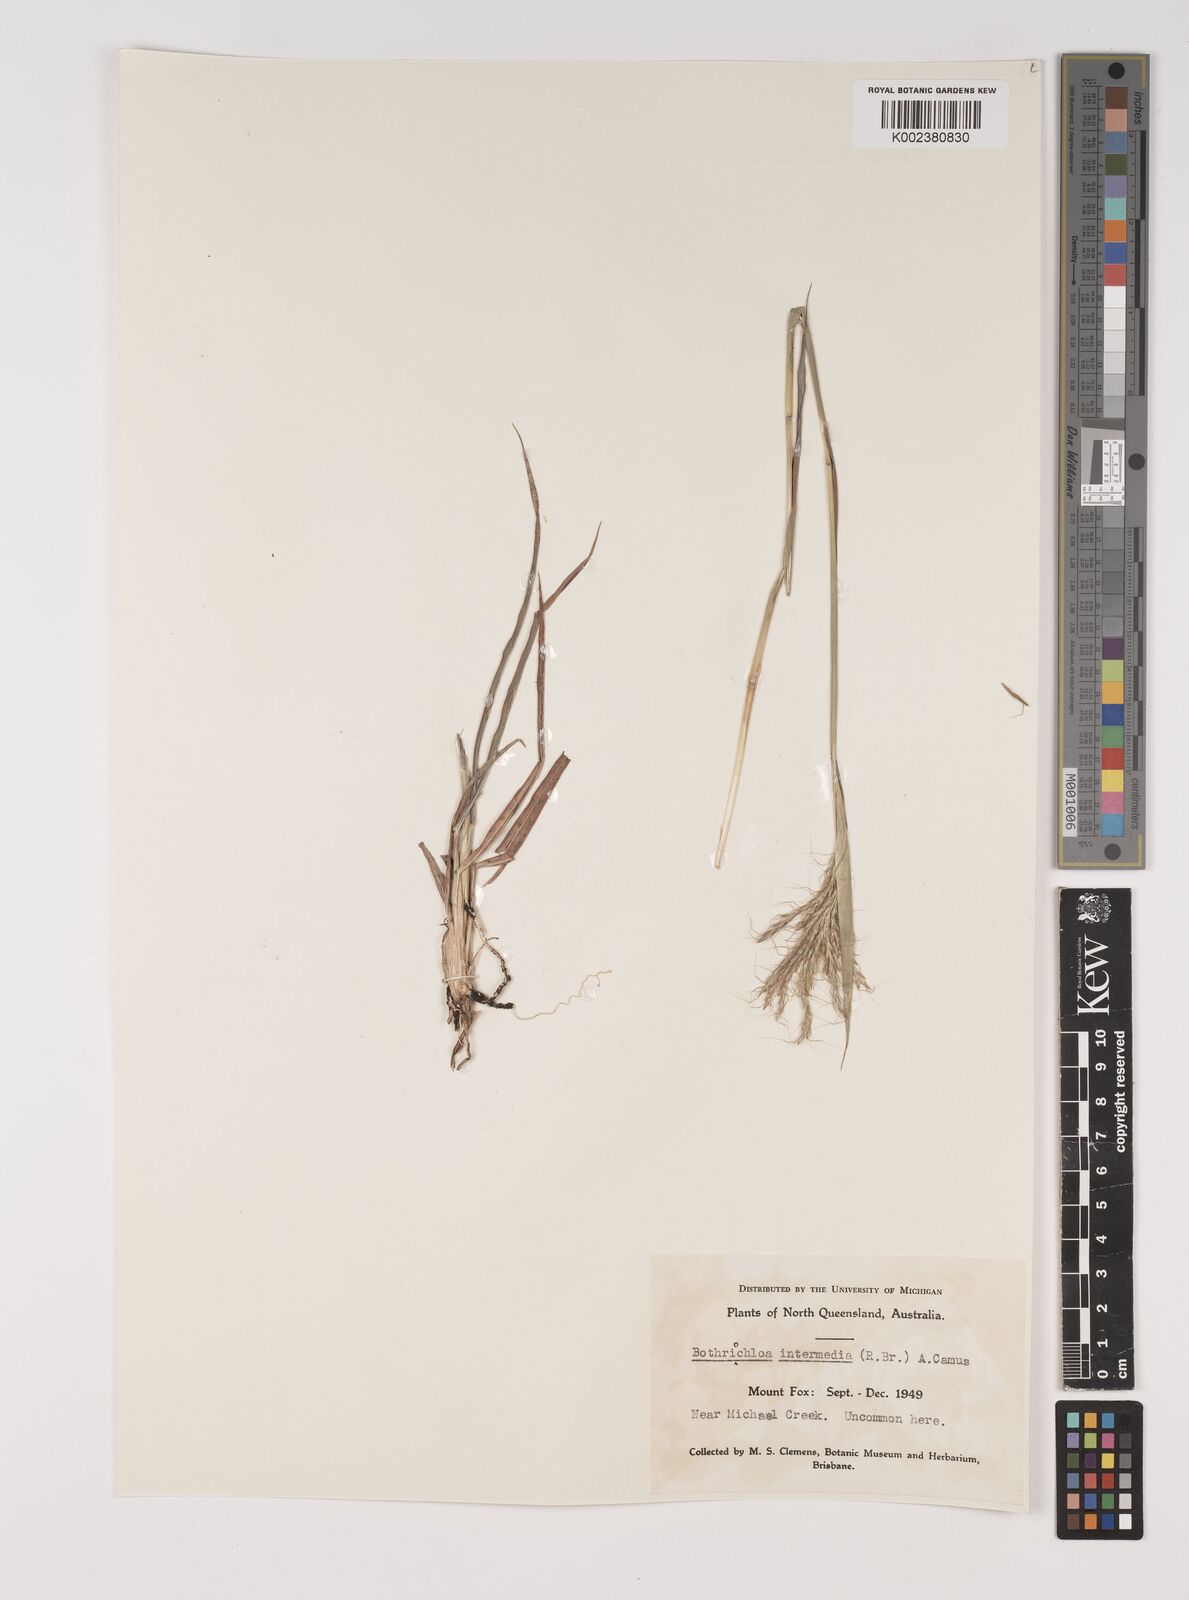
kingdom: Plantae
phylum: Tracheophyta
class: Liliopsida
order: Poales
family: Poaceae
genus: Bothriochloa
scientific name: Bothriochloa bladhii
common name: Caucasian bluestem
